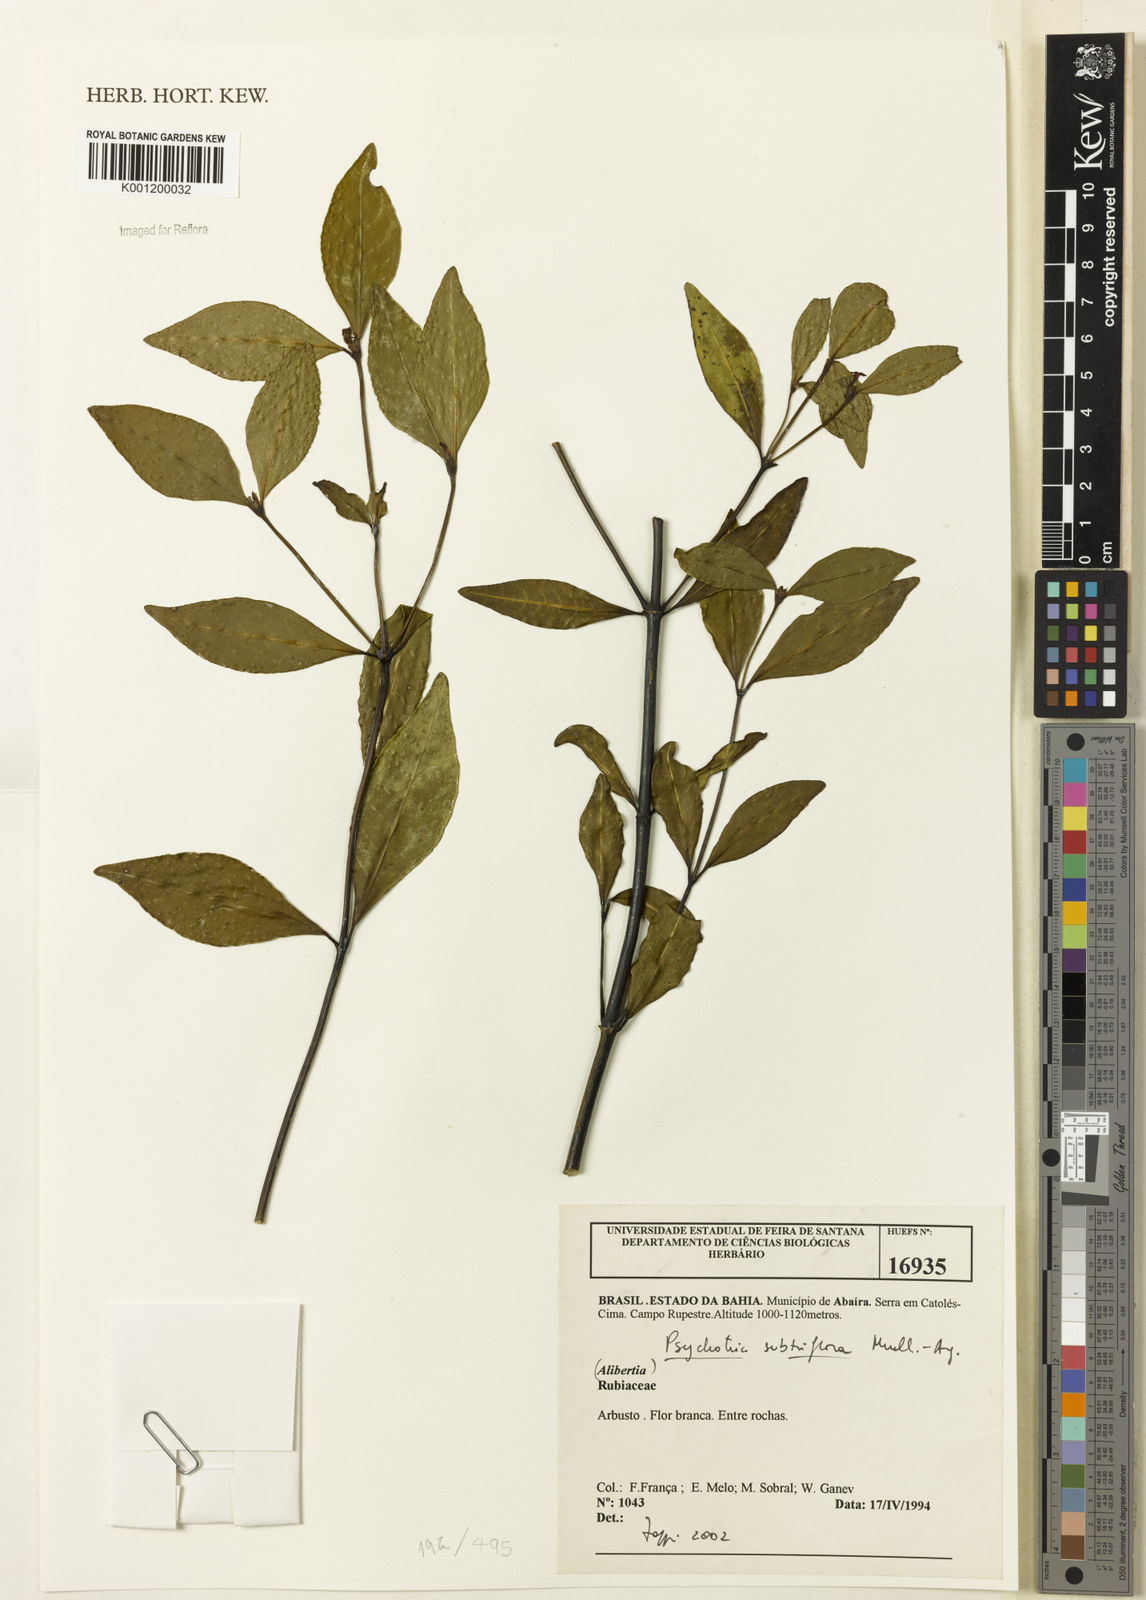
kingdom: Plantae
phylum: Tracheophyta
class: Magnoliopsida
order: Gentianales
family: Rubiaceae
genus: Psychotria
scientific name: Psychotria
